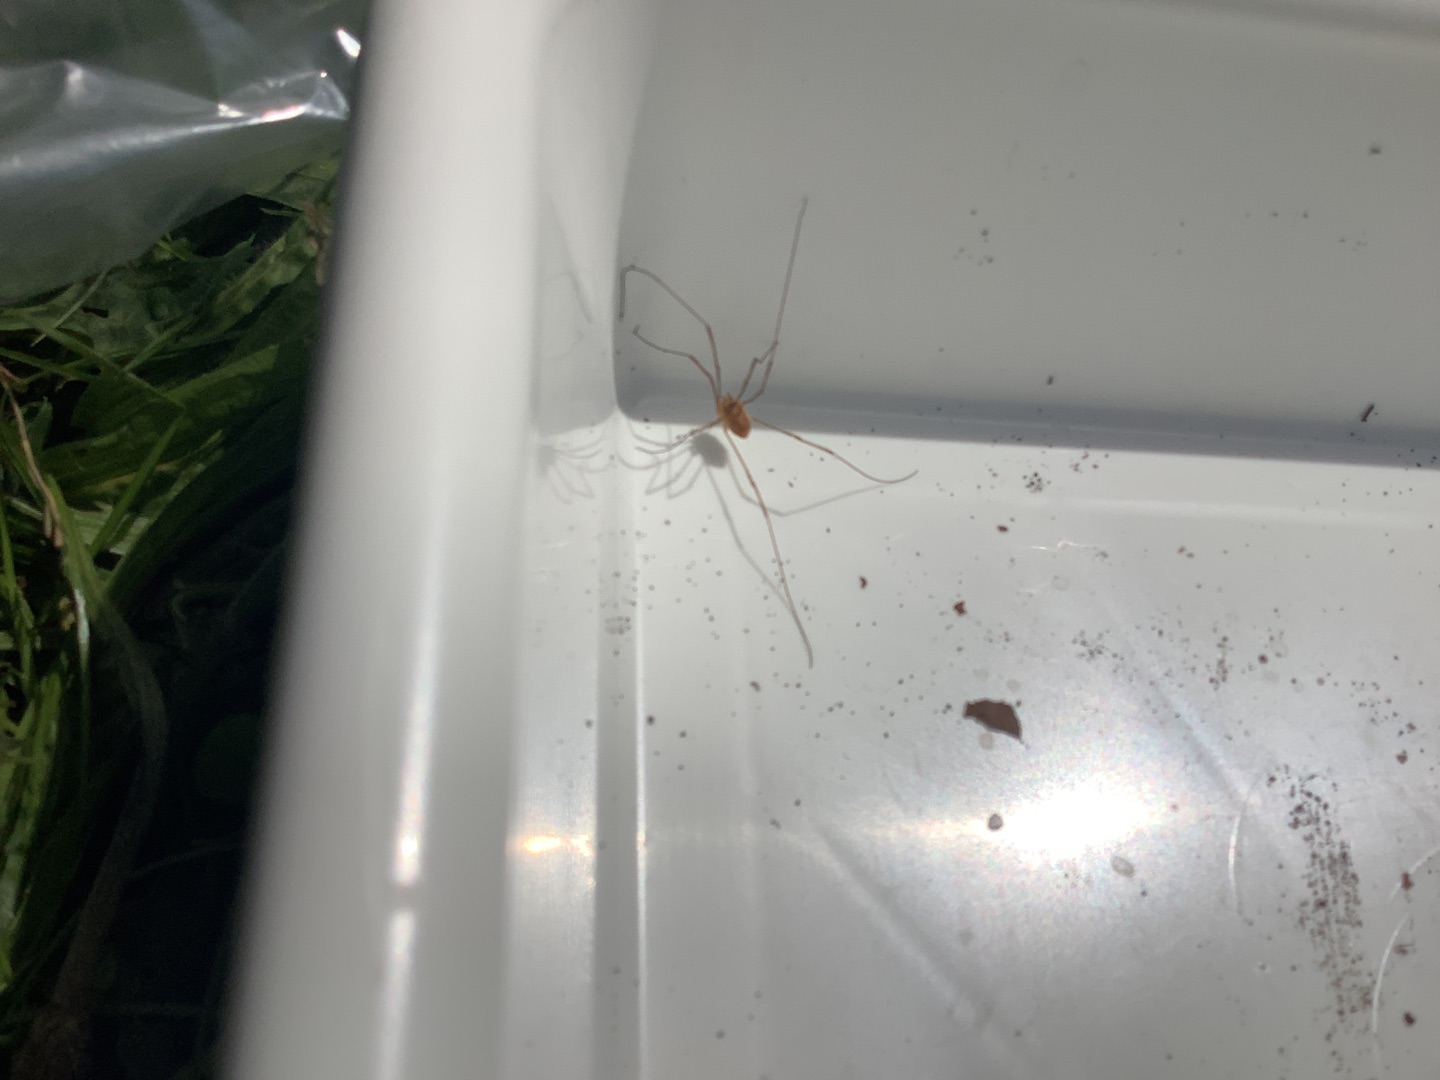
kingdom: Animalia
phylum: Arthropoda
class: Arachnida
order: Opiliones
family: Phalangiidae
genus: Opilio
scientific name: Opilio canestrinii
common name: Orange vægmejer
